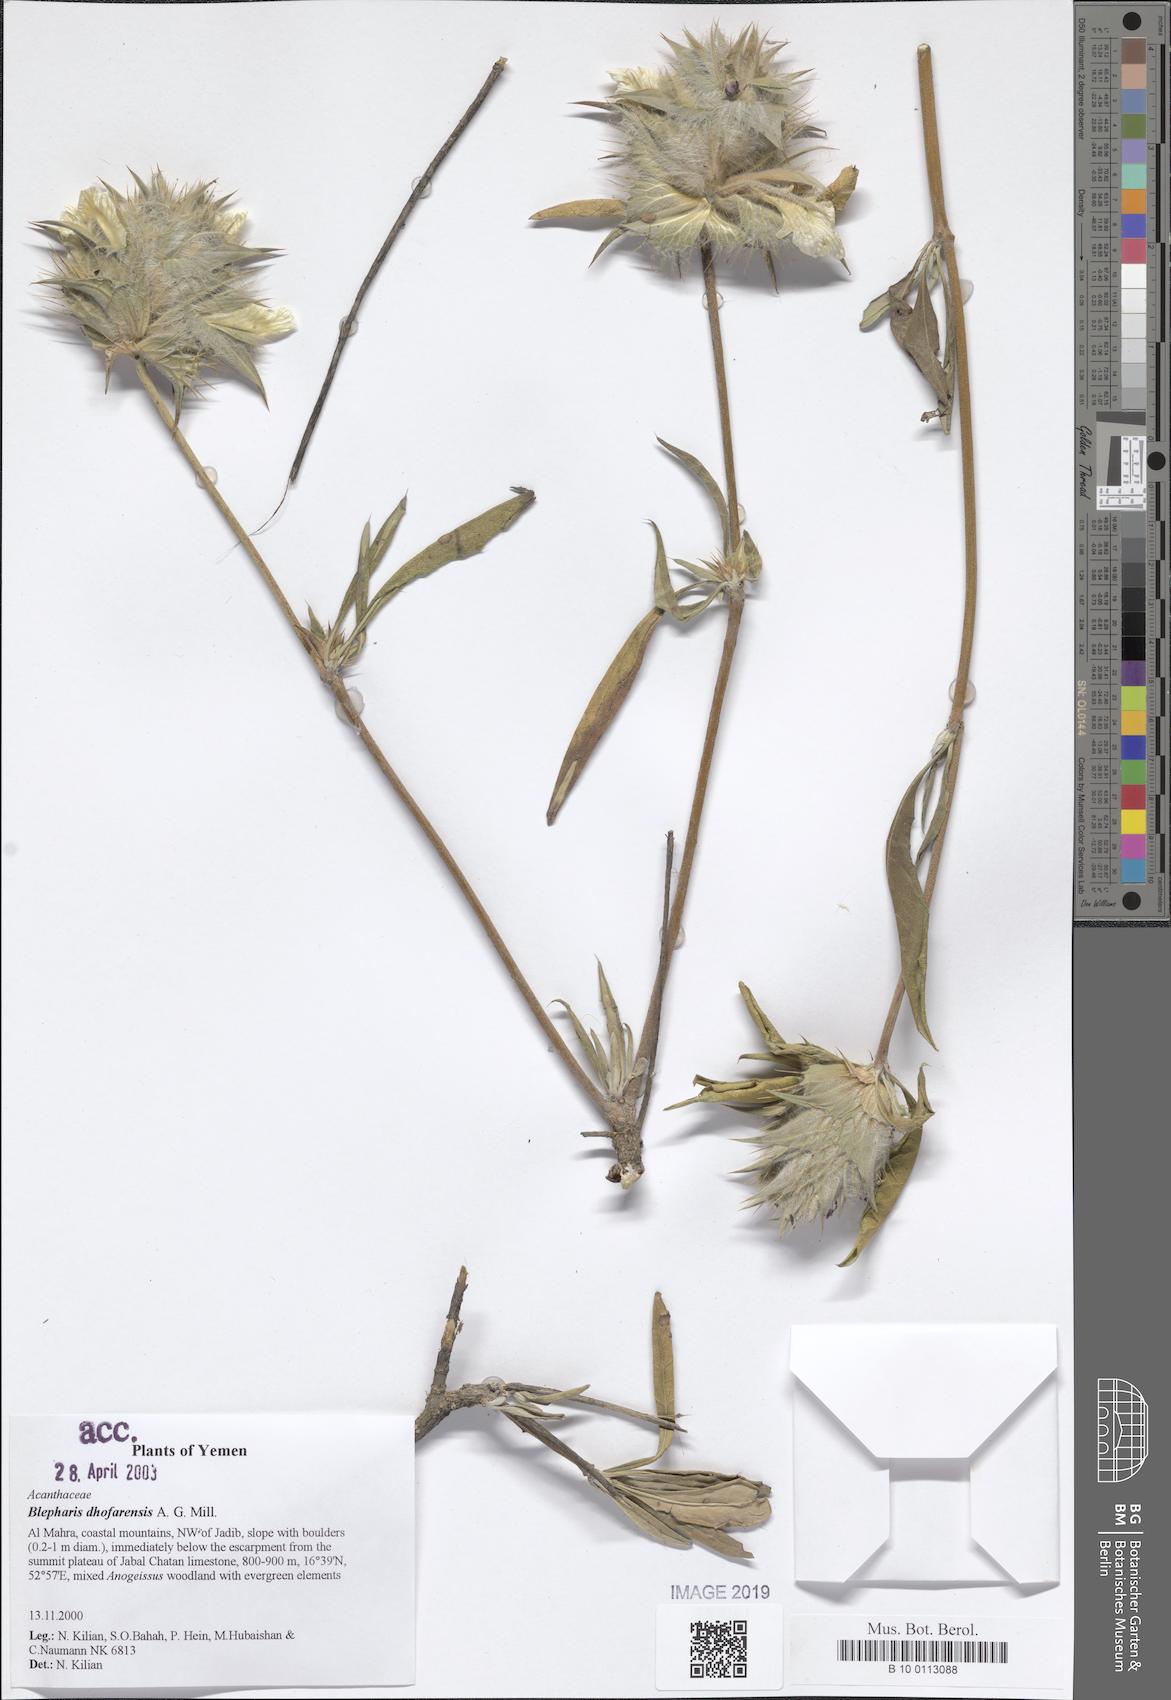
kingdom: Plantae
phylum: Tracheophyta
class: Magnoliopsida
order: Lamiales
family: Acanthaceae
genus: Blepharis
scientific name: Blepharis dhofarensis
